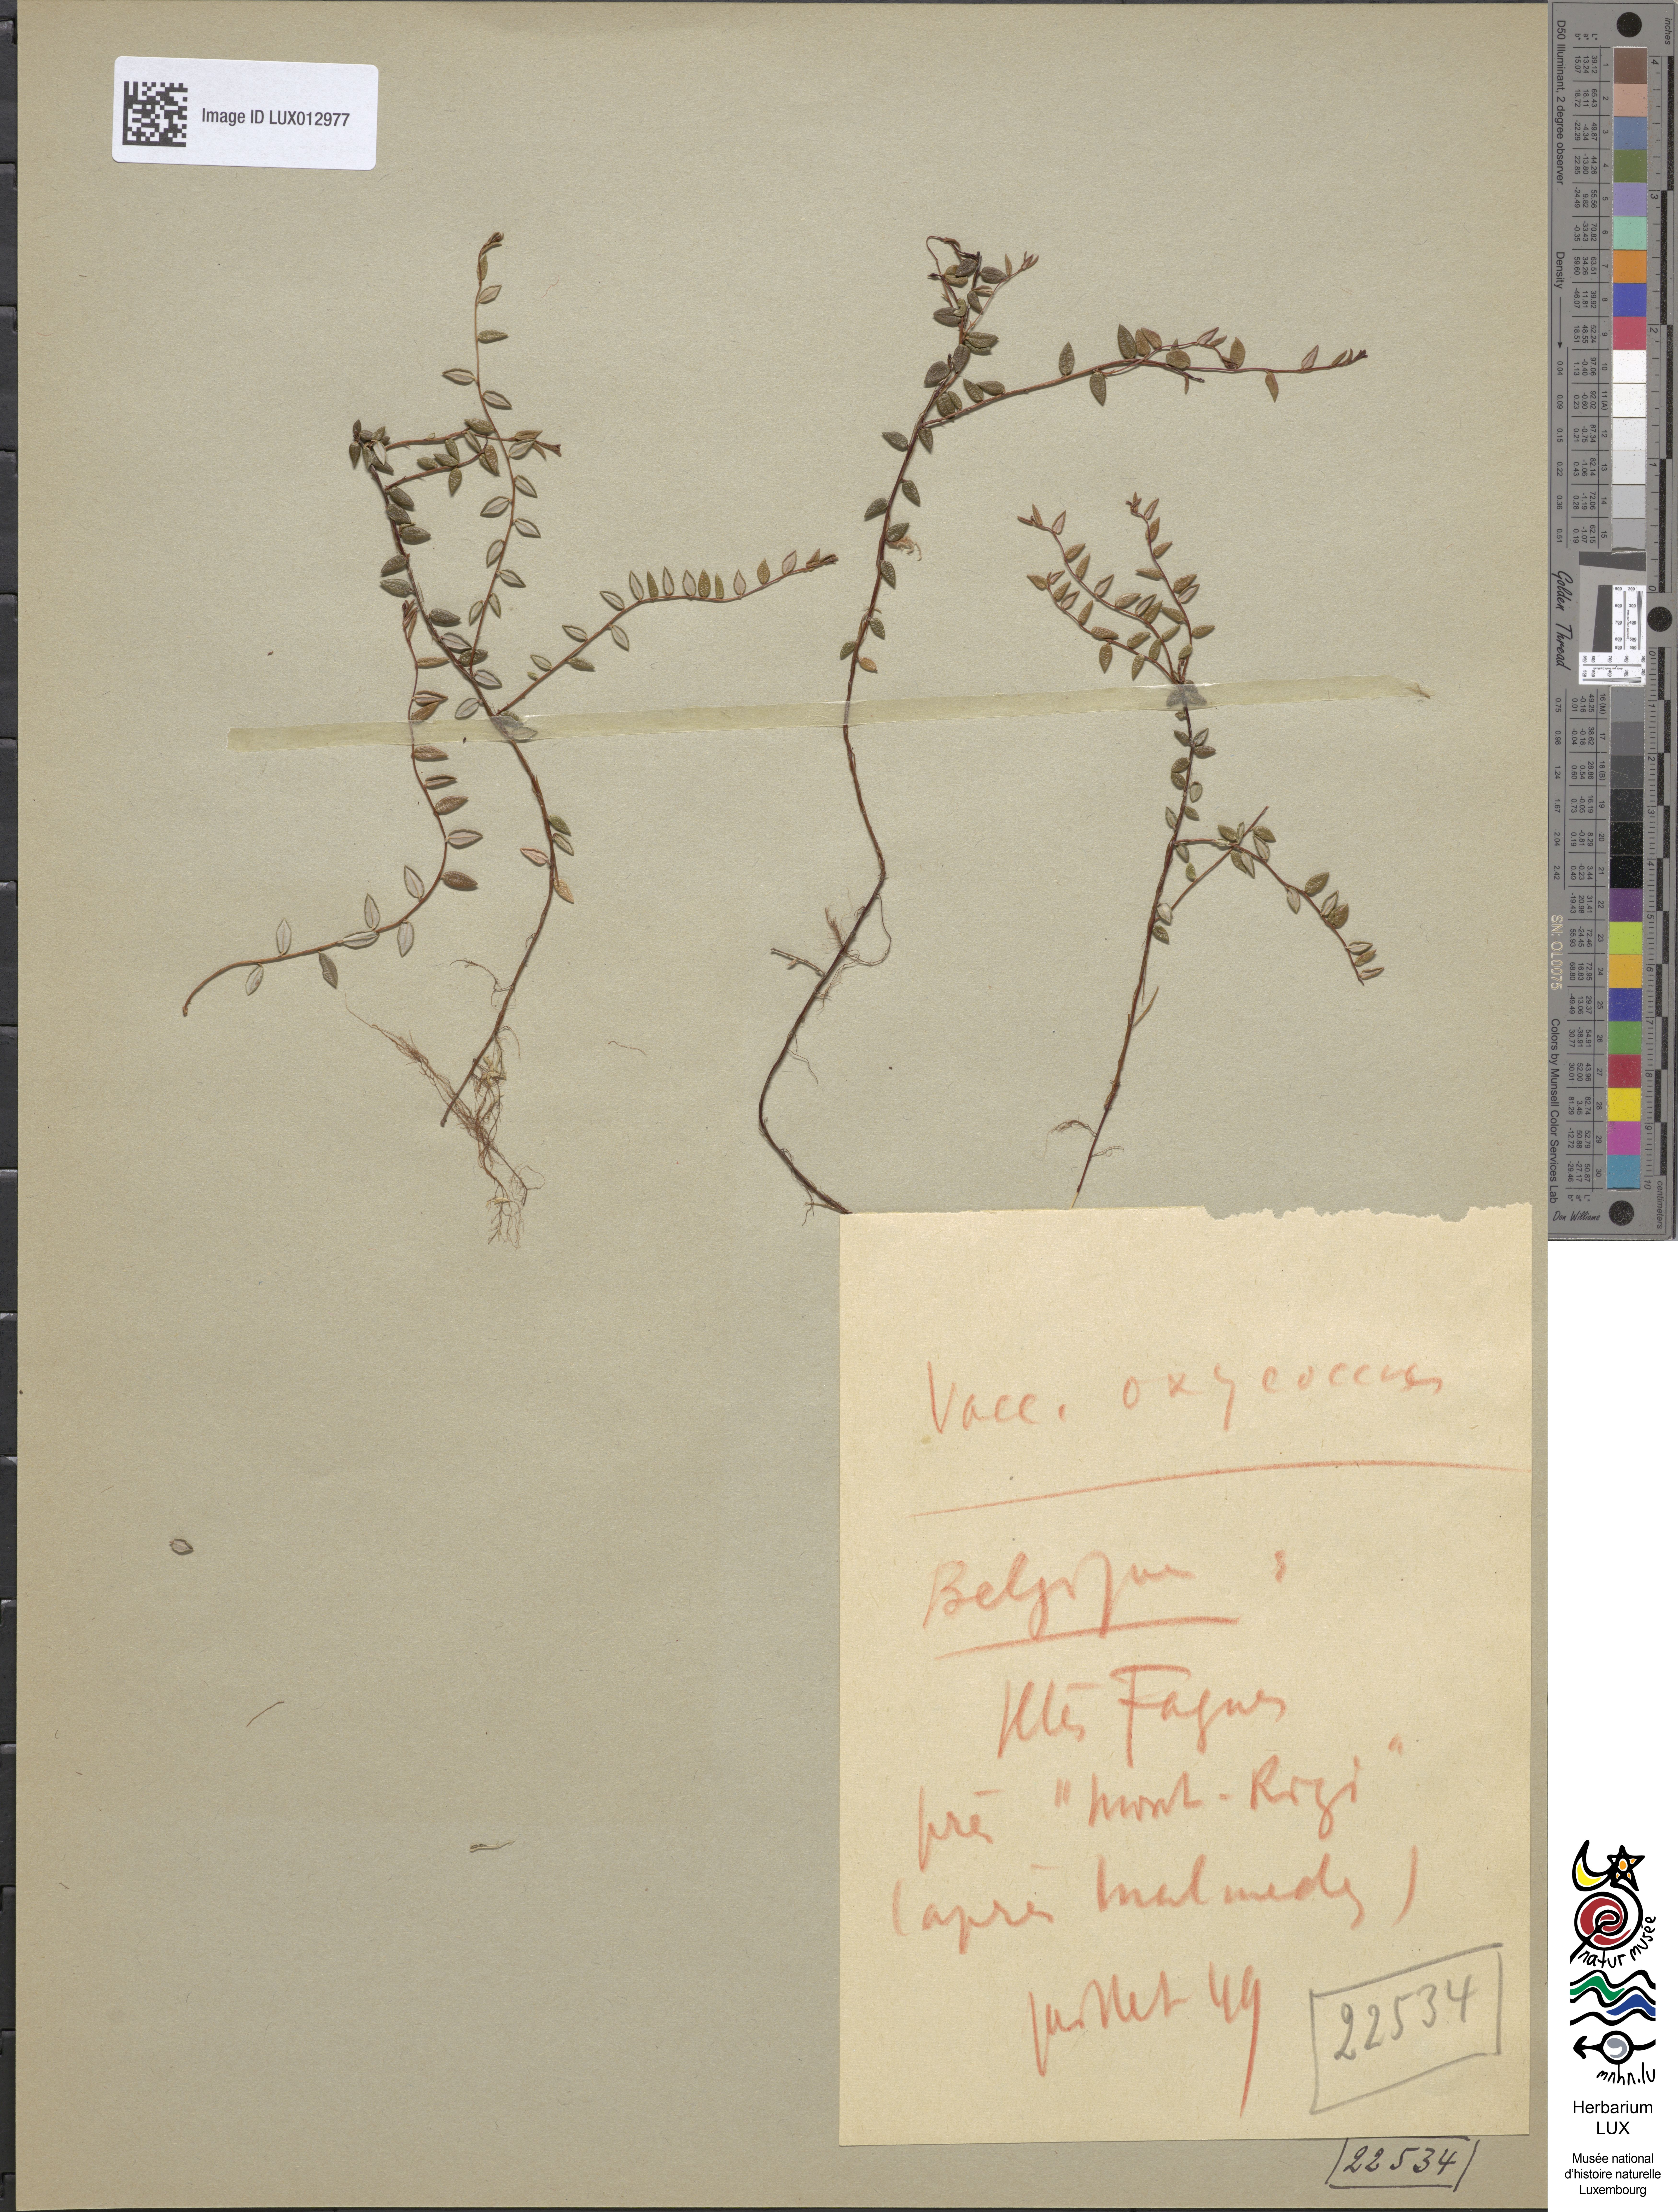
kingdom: Plantae
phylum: Tracheophyta
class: Magnoliopsida
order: Ericales
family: Ericaceae
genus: Vaccinium
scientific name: Vaccinium oxycoccos
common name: Cranberry
